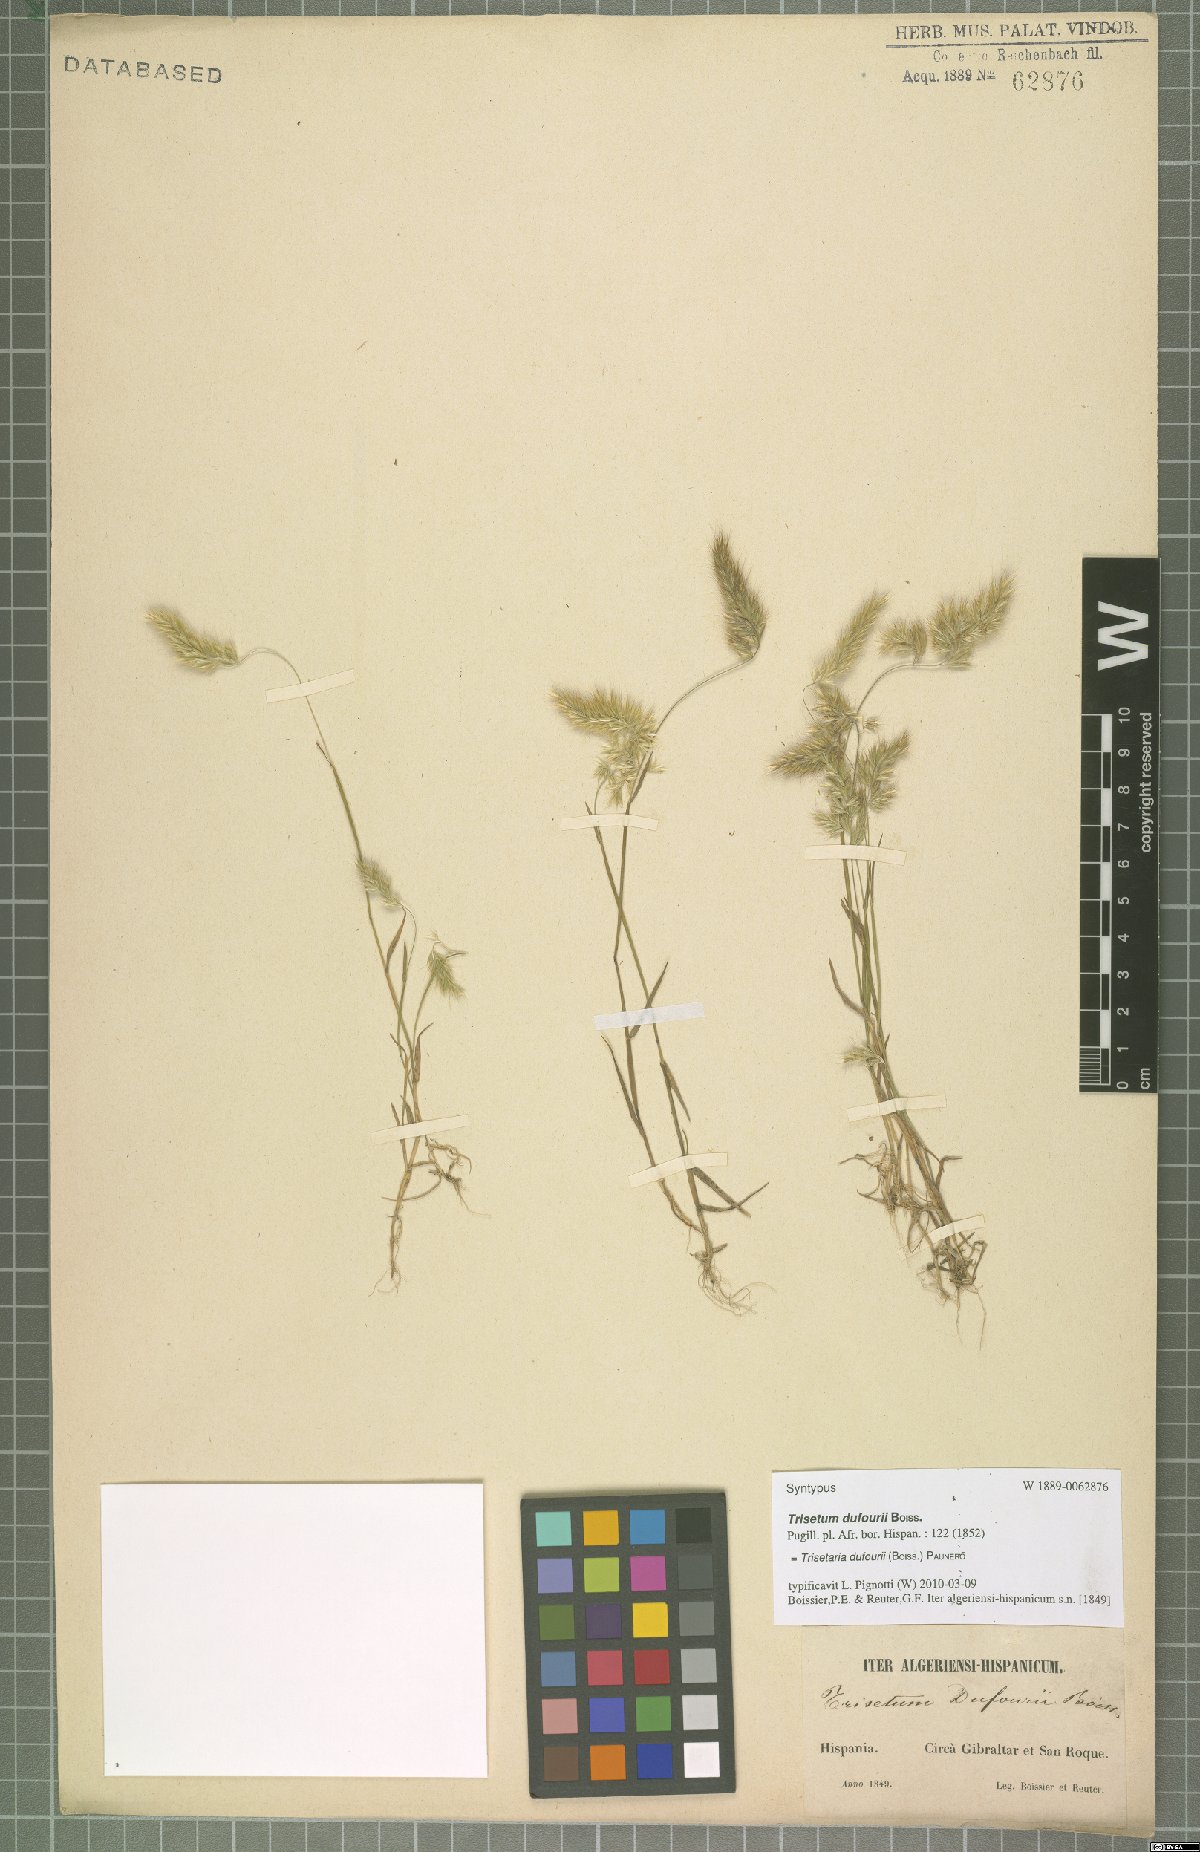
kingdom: Plantae
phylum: Tracheophyta
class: Liliopsida
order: Poales
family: Poaceae
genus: Trisetaria
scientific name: Trisetaria dufourei
